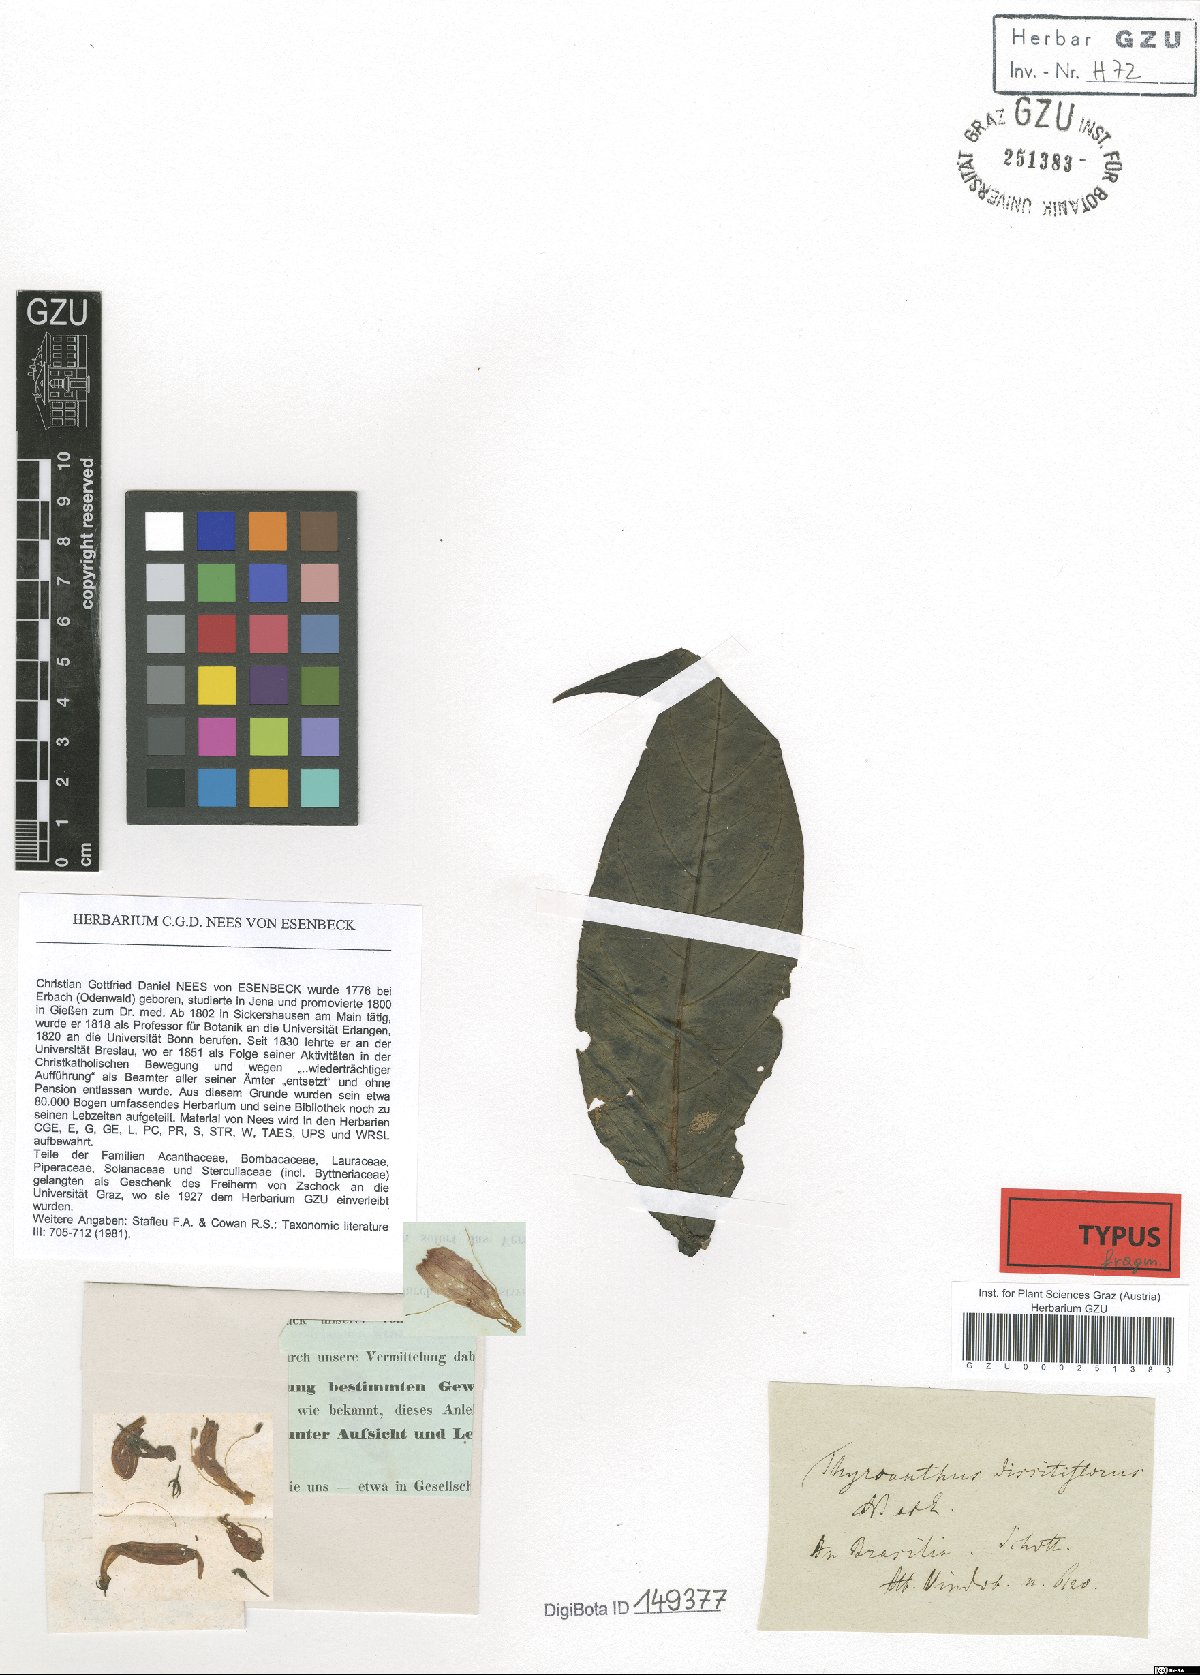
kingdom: Plantae
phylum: Tracheophyta
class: Magnoliopsida
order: Lamiales
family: Acanthaceae
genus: Odontonema
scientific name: Odontonema dissitiflorum
